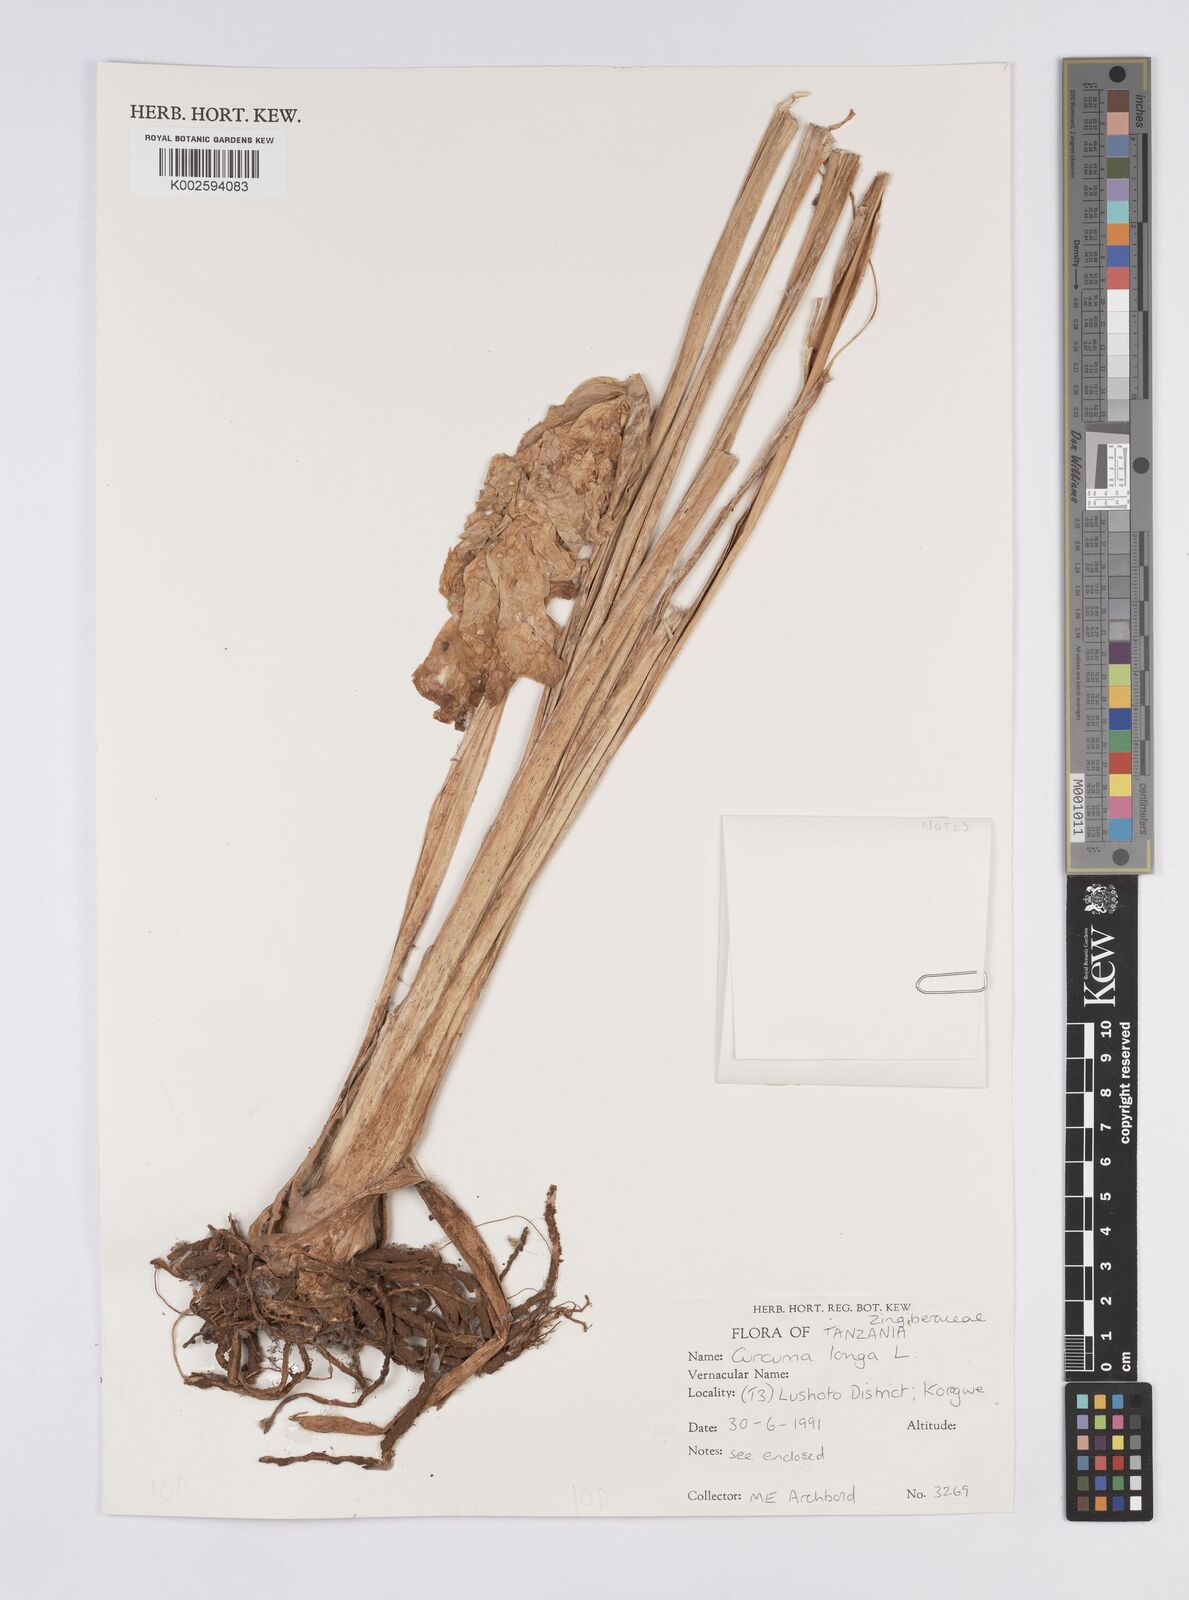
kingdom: Plantae
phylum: Tracheophyta
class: Liliopsida
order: Zingiberales
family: Zingiberaceae
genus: Curcuma
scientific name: Curcuma longa
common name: Turmeric
